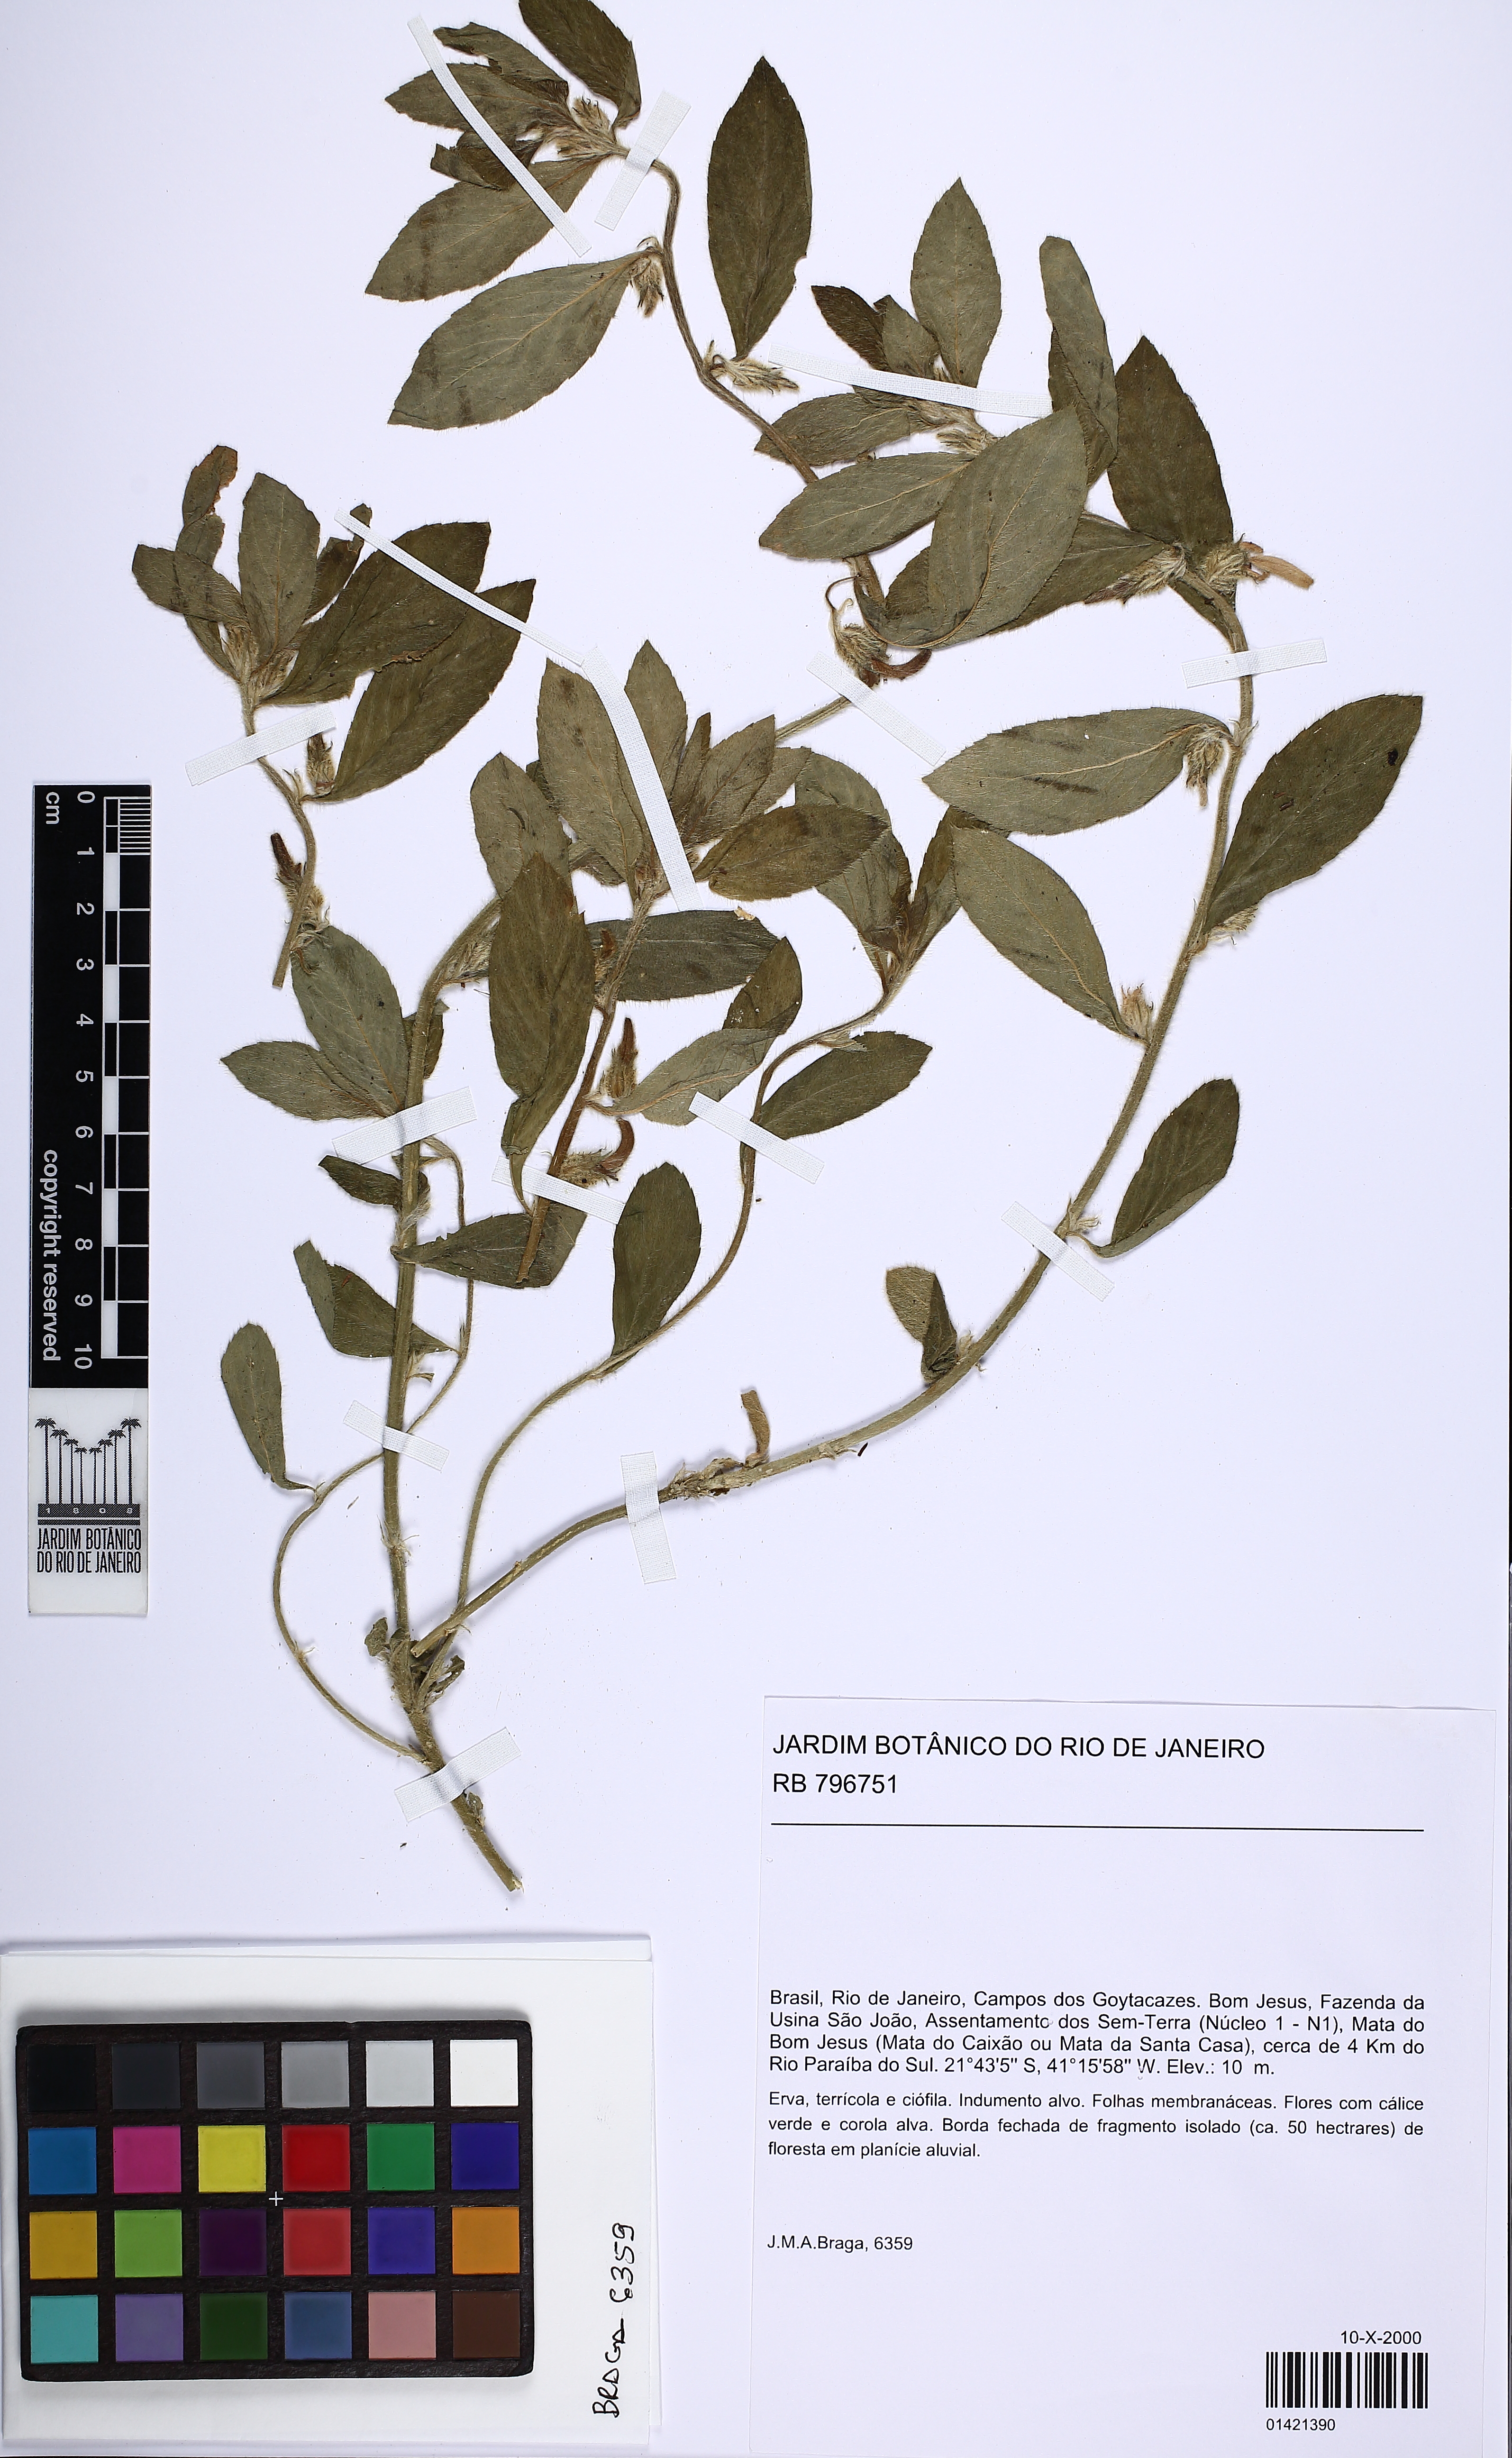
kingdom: Plantae
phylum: Tracheophyta
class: Magnoliopsida
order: Malpighiales
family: Violaceae
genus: Pombalia
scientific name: Pombalia calceolaria
